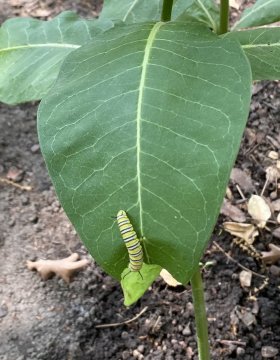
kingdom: Animalia
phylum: Arthropoda
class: Insecta
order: Lepidoptera
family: Nymphalidae
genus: Danaus
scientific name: Danaus plexippus
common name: Monarch
